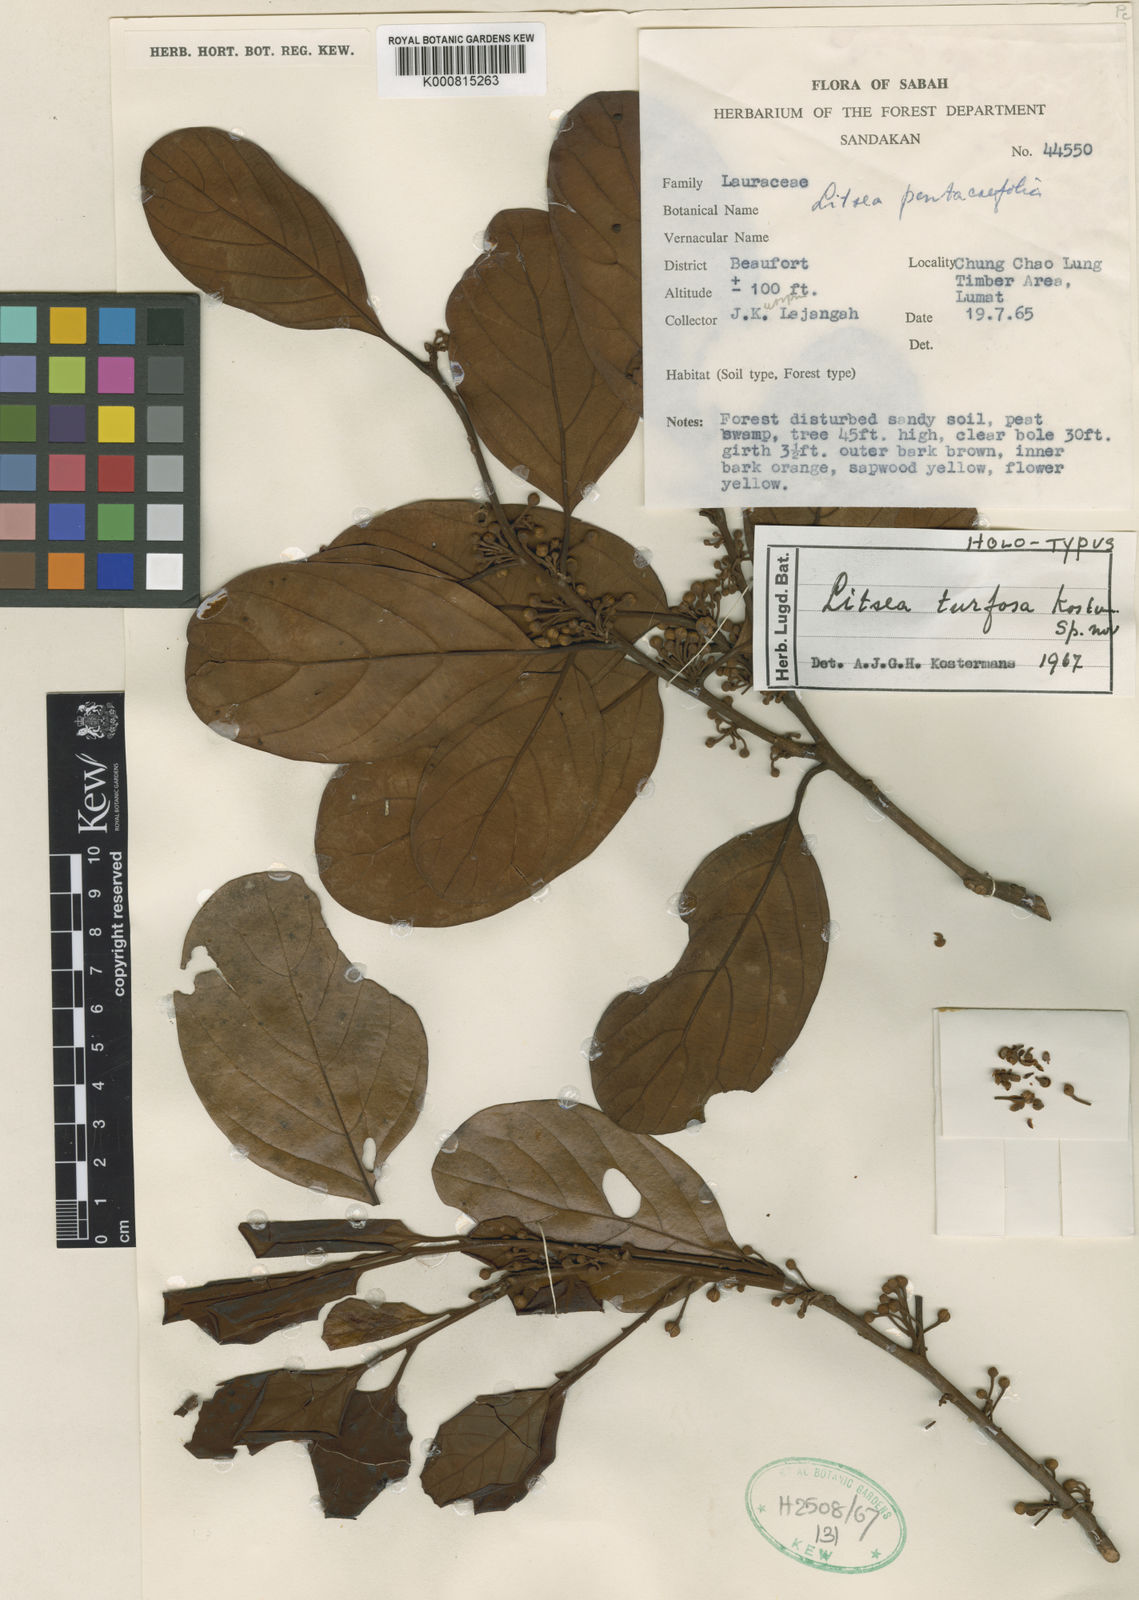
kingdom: Plantae
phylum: Tracheophyta
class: Magnoliopsida
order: Laurales
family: Lauraceae
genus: Litsea
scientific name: Litsea turfosa
